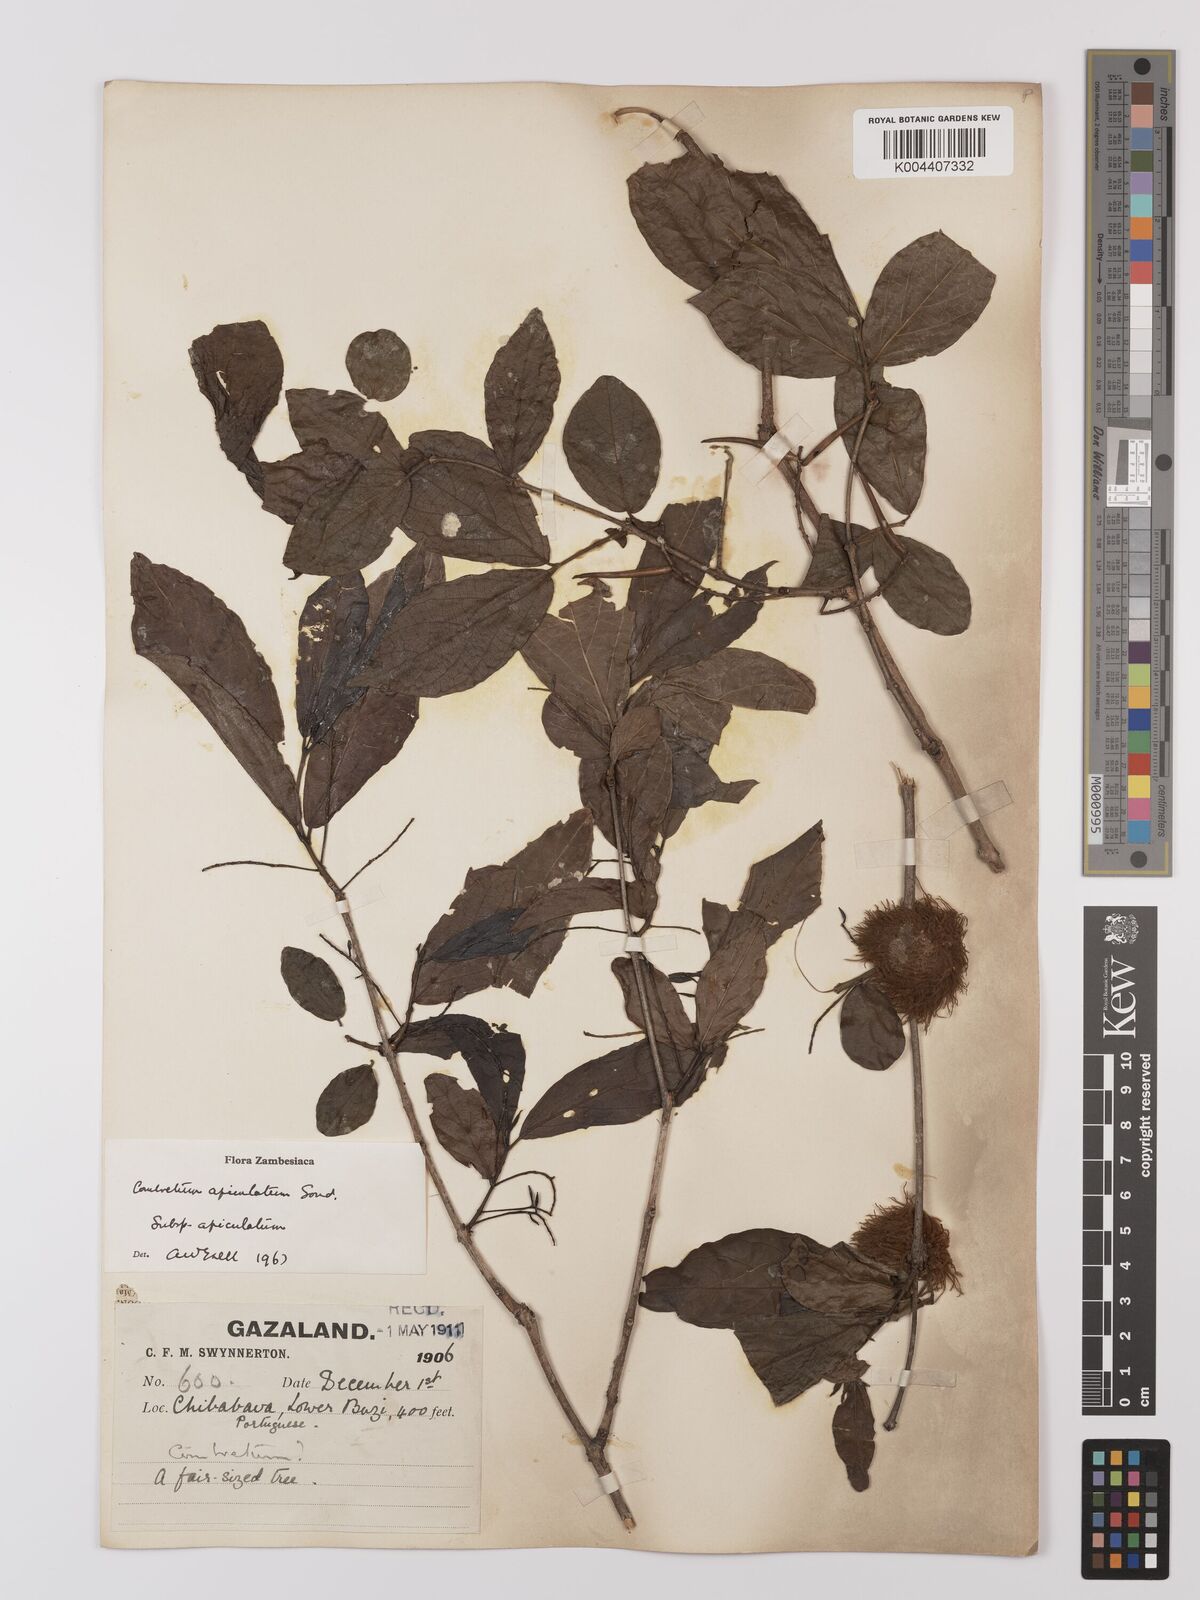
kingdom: Plantae
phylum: Tracheophyta
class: Magnoliopsida
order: Myrtales
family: Combretaceae
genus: Combretum
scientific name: Combretum apiculatum
